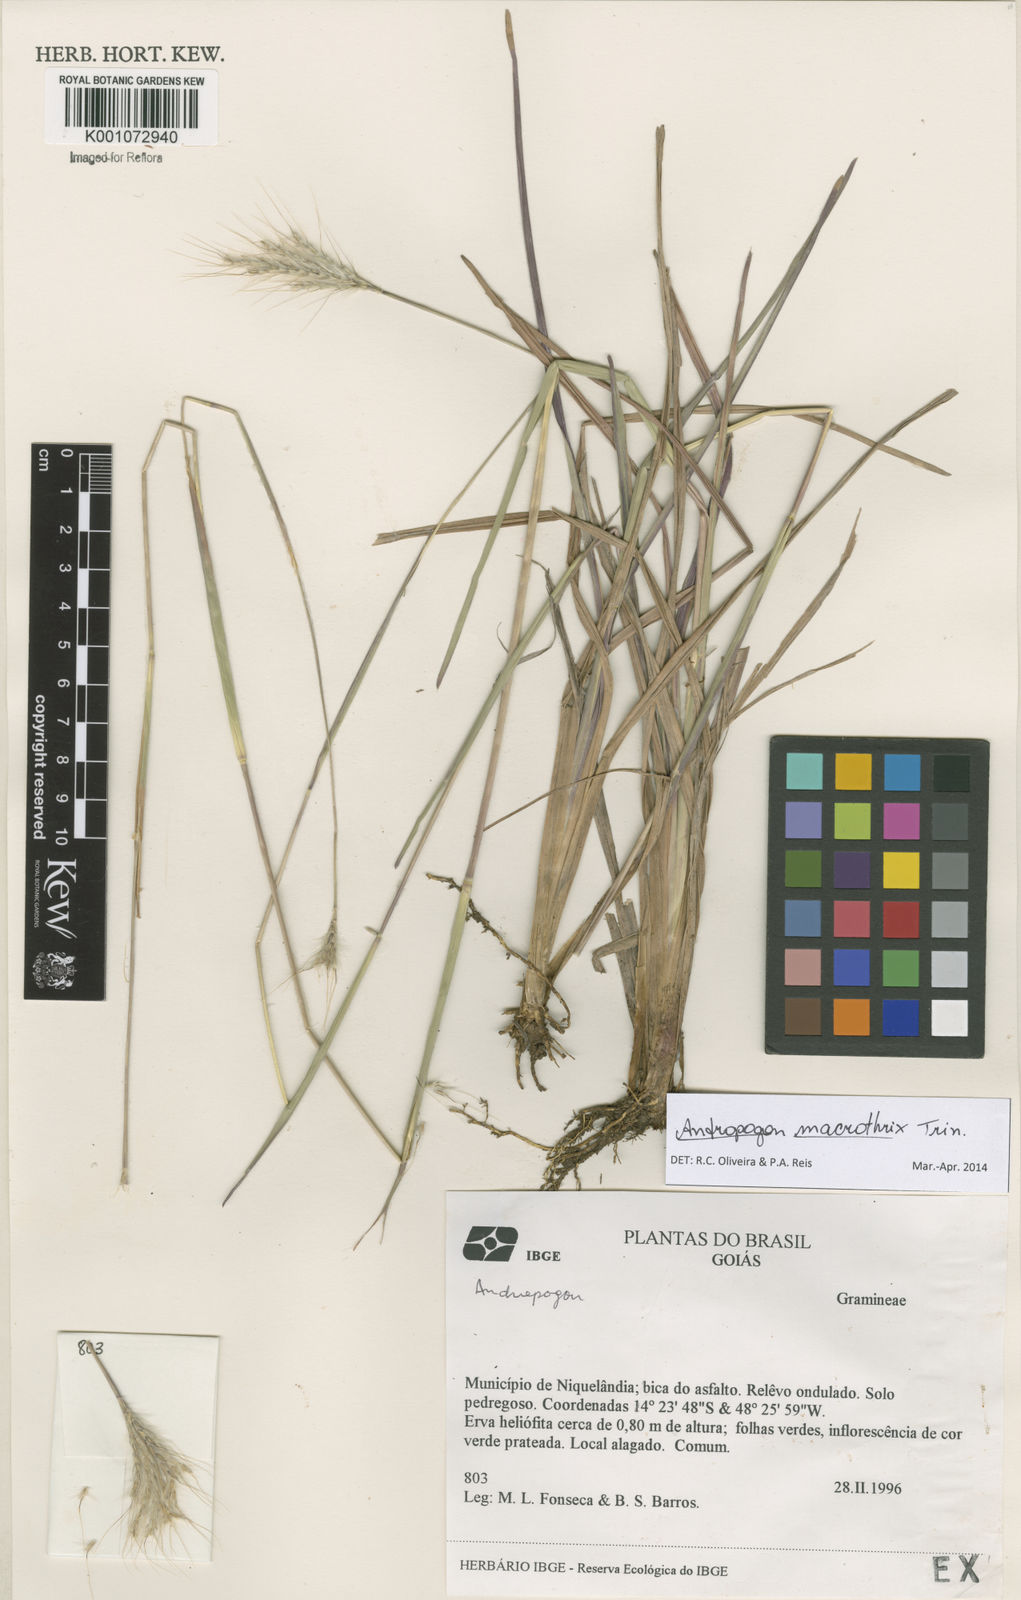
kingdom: Plantae
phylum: Tracheophyta
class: Liliopsida
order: Poales
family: Poaceae
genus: Andropogon
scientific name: Andropogon macrothrix
